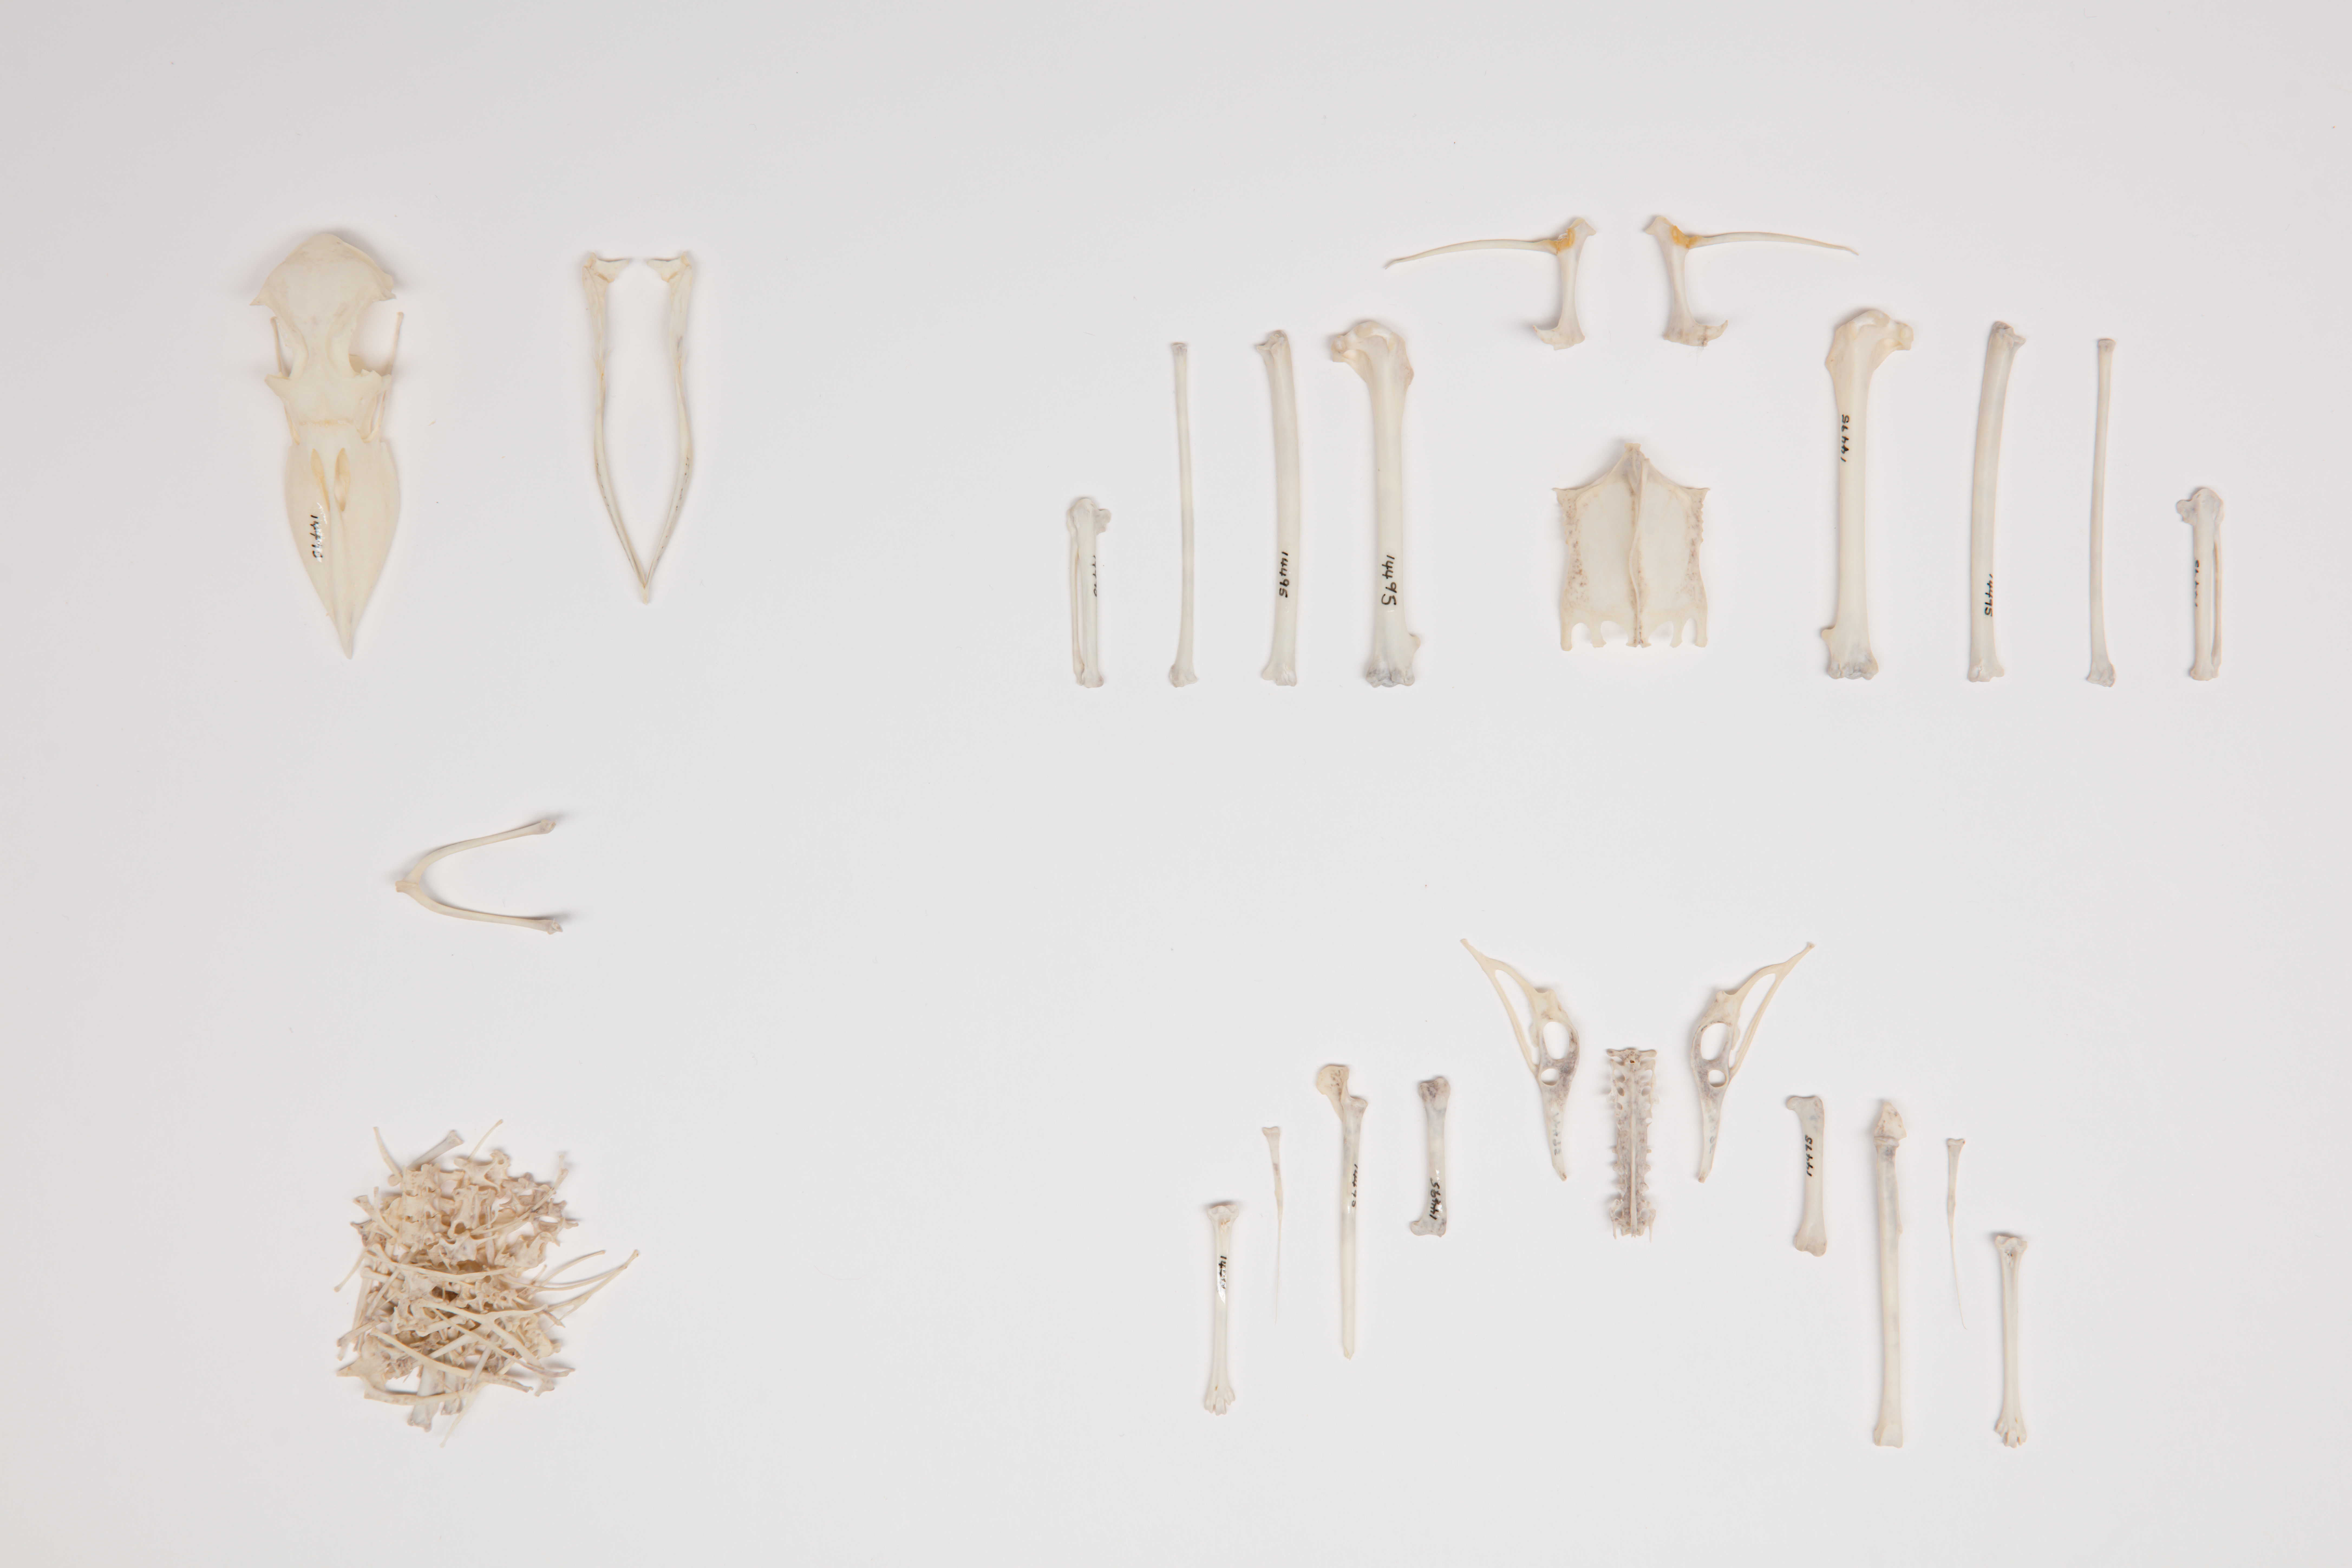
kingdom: Animalia
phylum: Chordata
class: Aves
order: Procellariiformes
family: Procellariidae
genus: Pachyptila
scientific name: Pachyptila vittata
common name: Broad-billed prion
